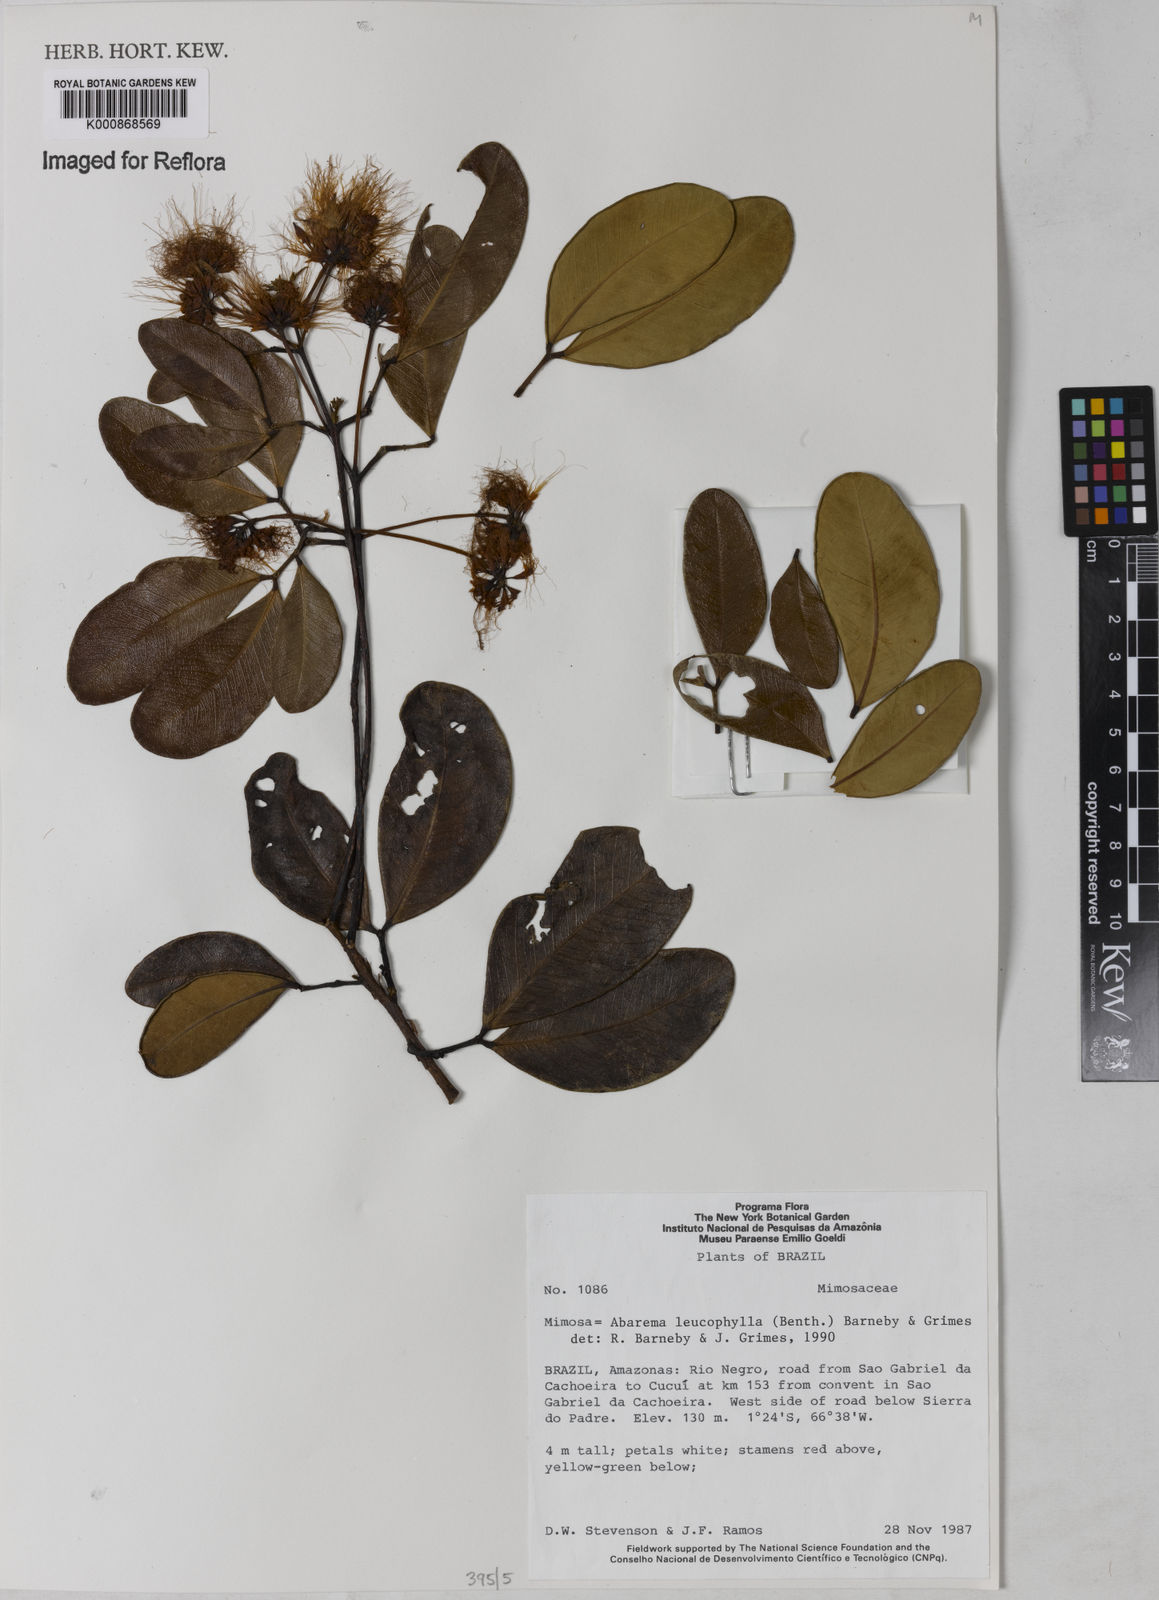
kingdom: Plantae
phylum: Tracheophyta
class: Magnoliopsida
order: Fabales
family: Fabaceae
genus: Jupunba
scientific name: Jupunba leucophylla
